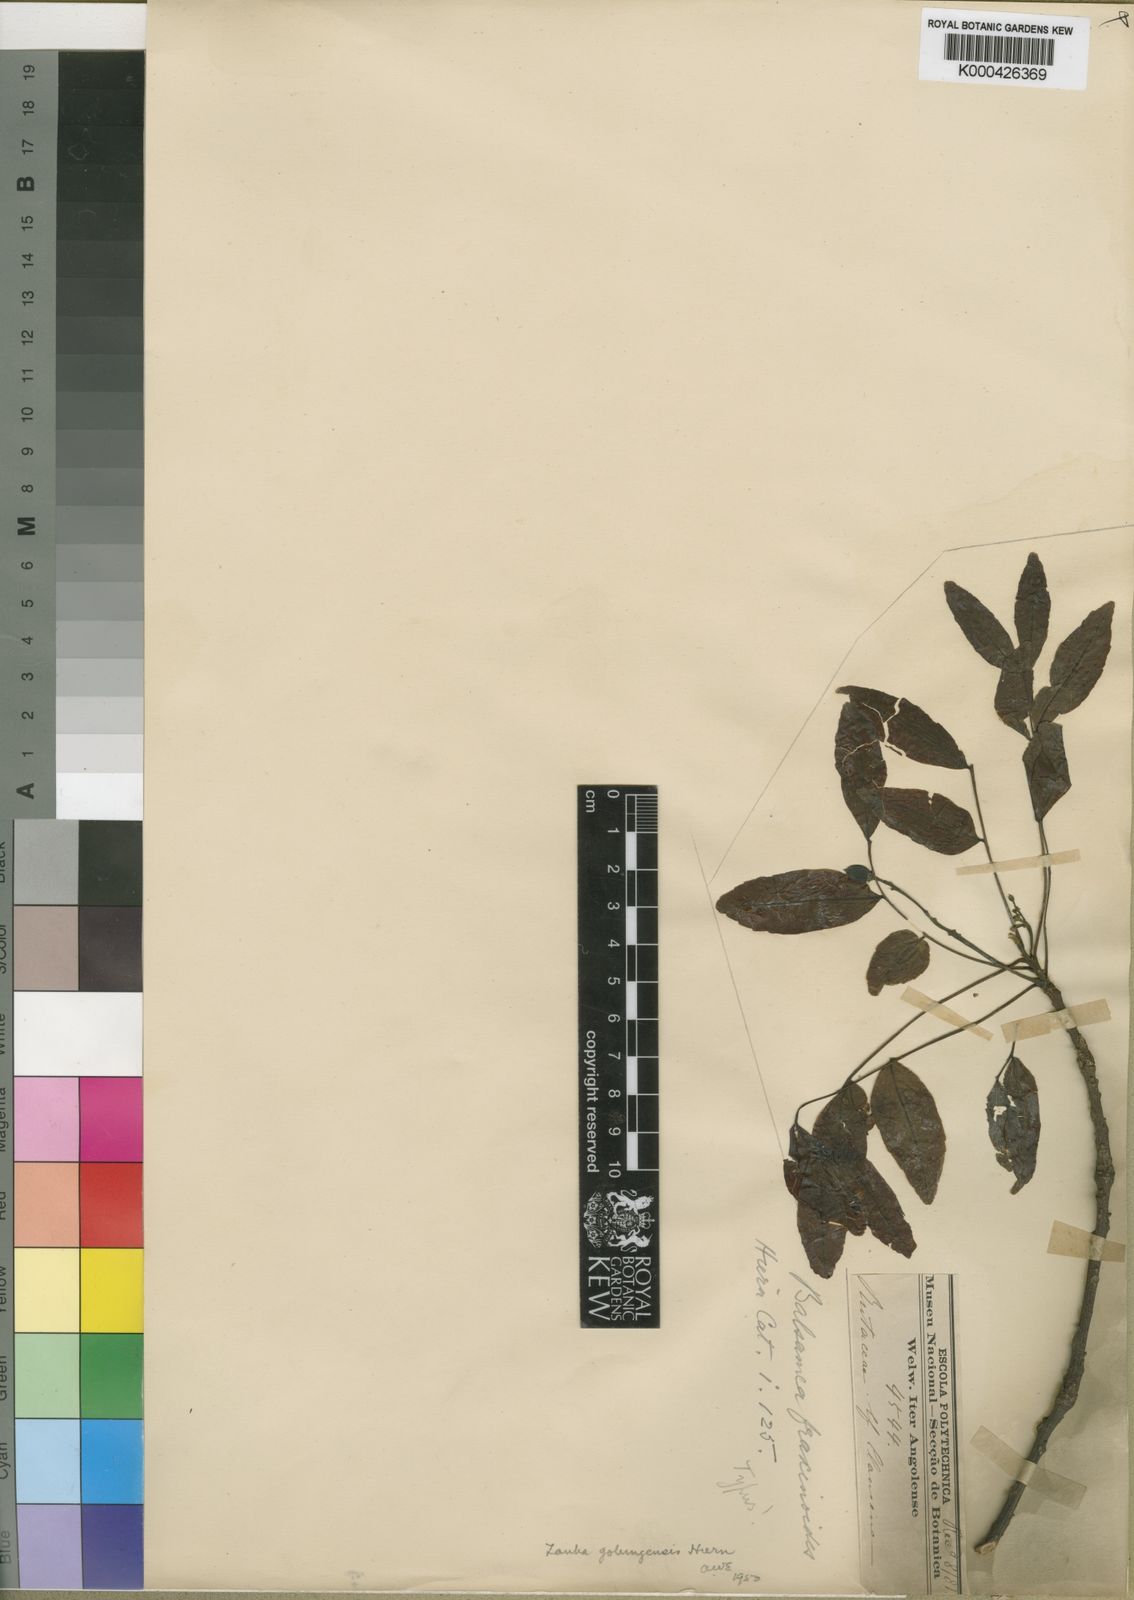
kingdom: Plantae
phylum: Tracheophyta
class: Magnoliopsida
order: Sapindales
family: Sapindaceae
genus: Zanha
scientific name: Zanha golungensis
